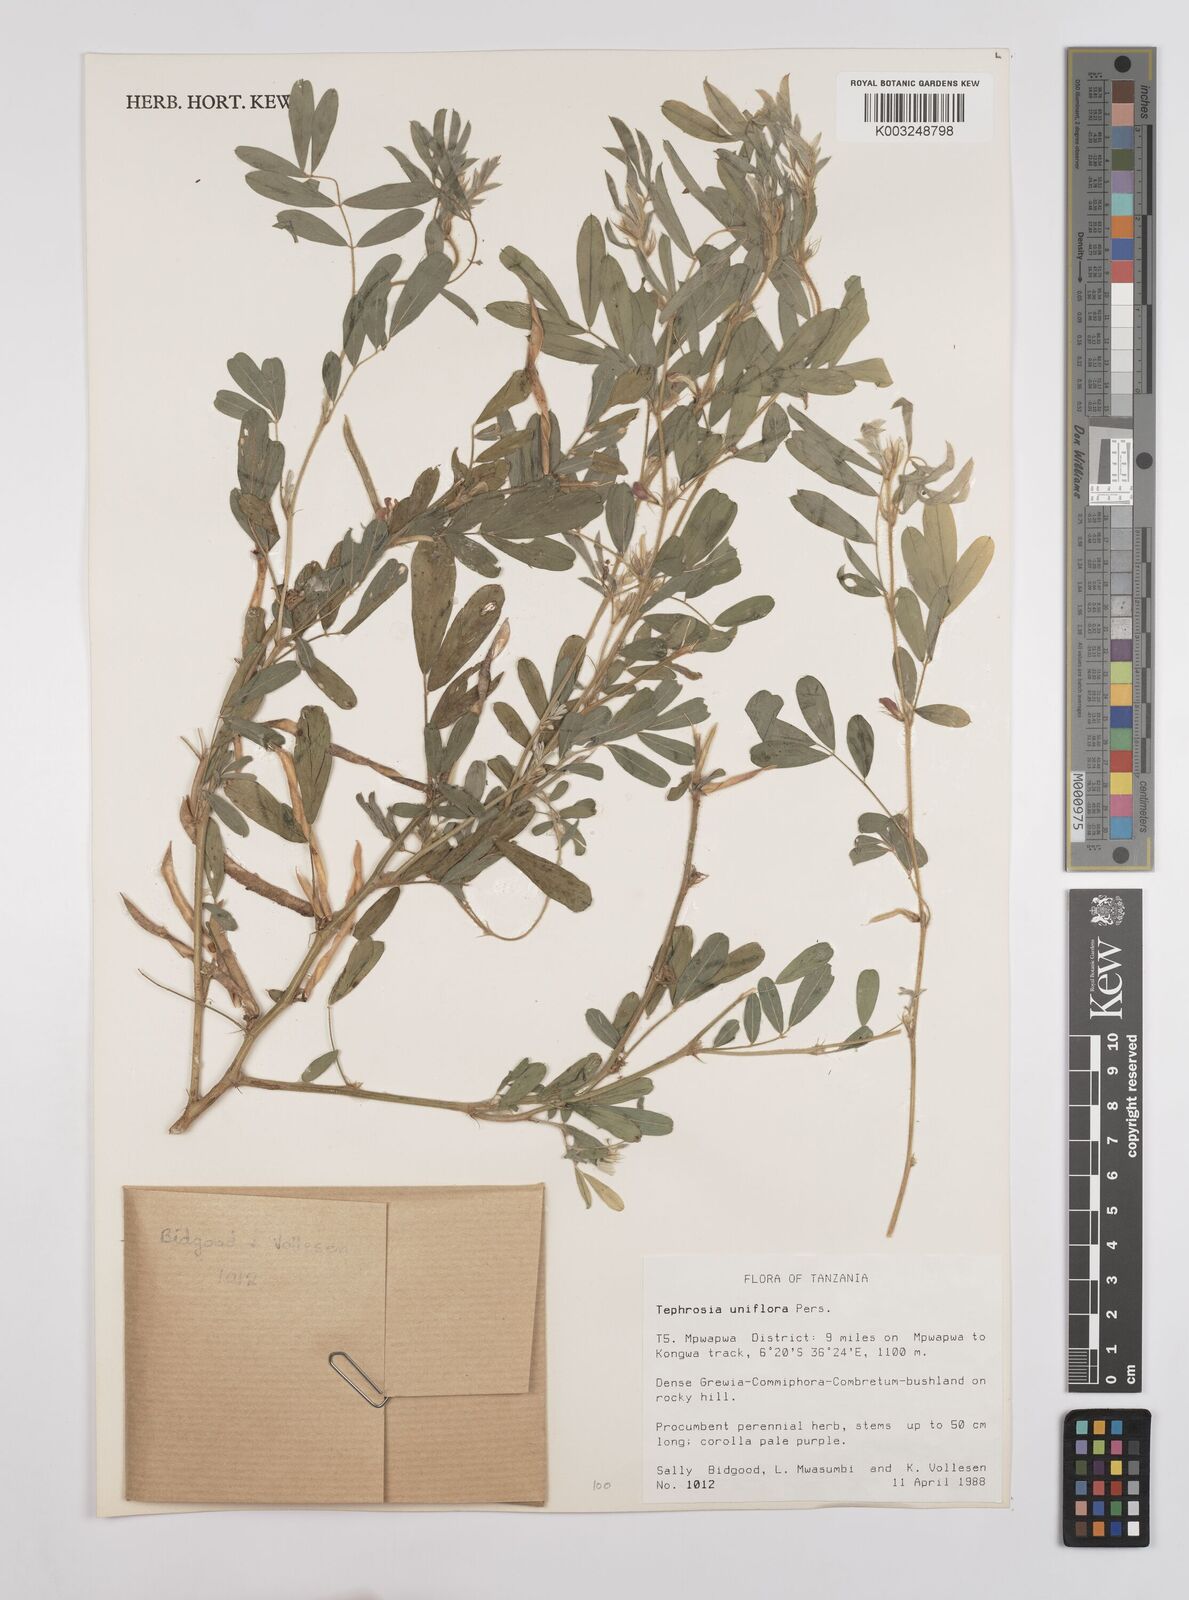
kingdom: Plantae
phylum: Tracheophyta
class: Magnoliopsida
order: Fabales
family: Fabaceae
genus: Tephrosia
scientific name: Tephrosia uniflora
